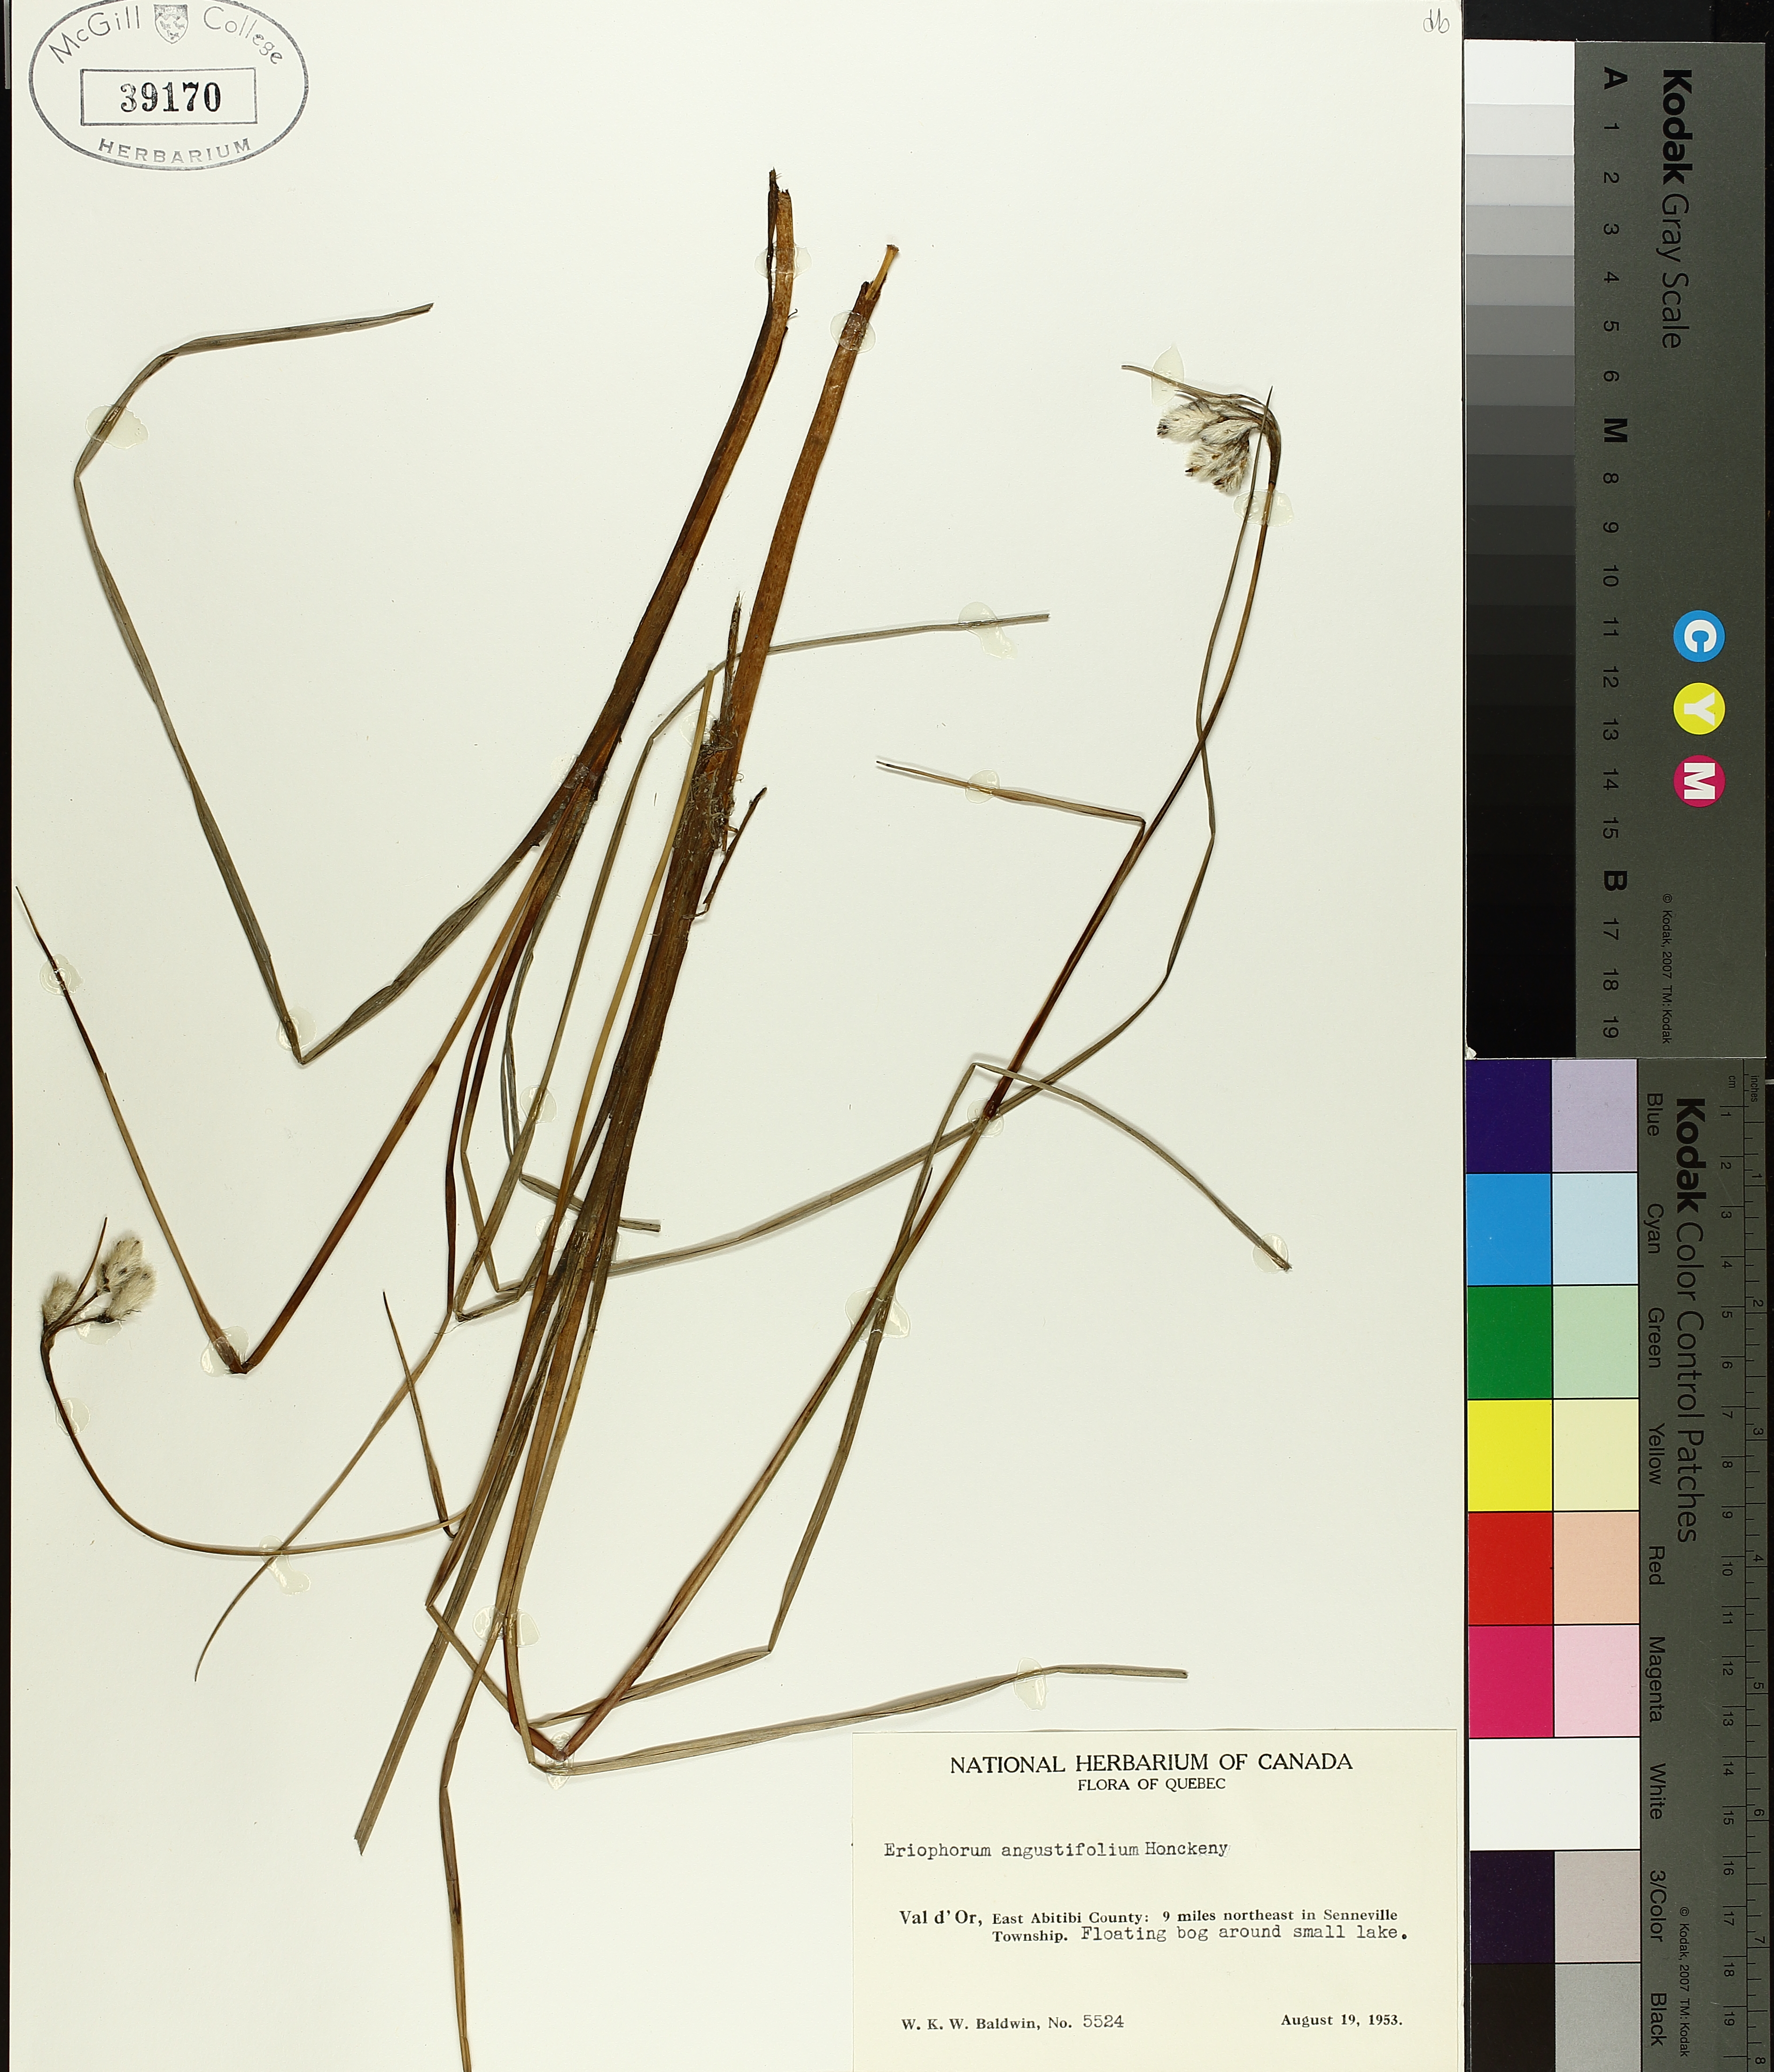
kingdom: Plantae
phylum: Tracheophyta
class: Liliopsida
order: Poales
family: Cyperaceae
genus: Eriophorum
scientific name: Eriophorum triste
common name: Tall cottongrass
